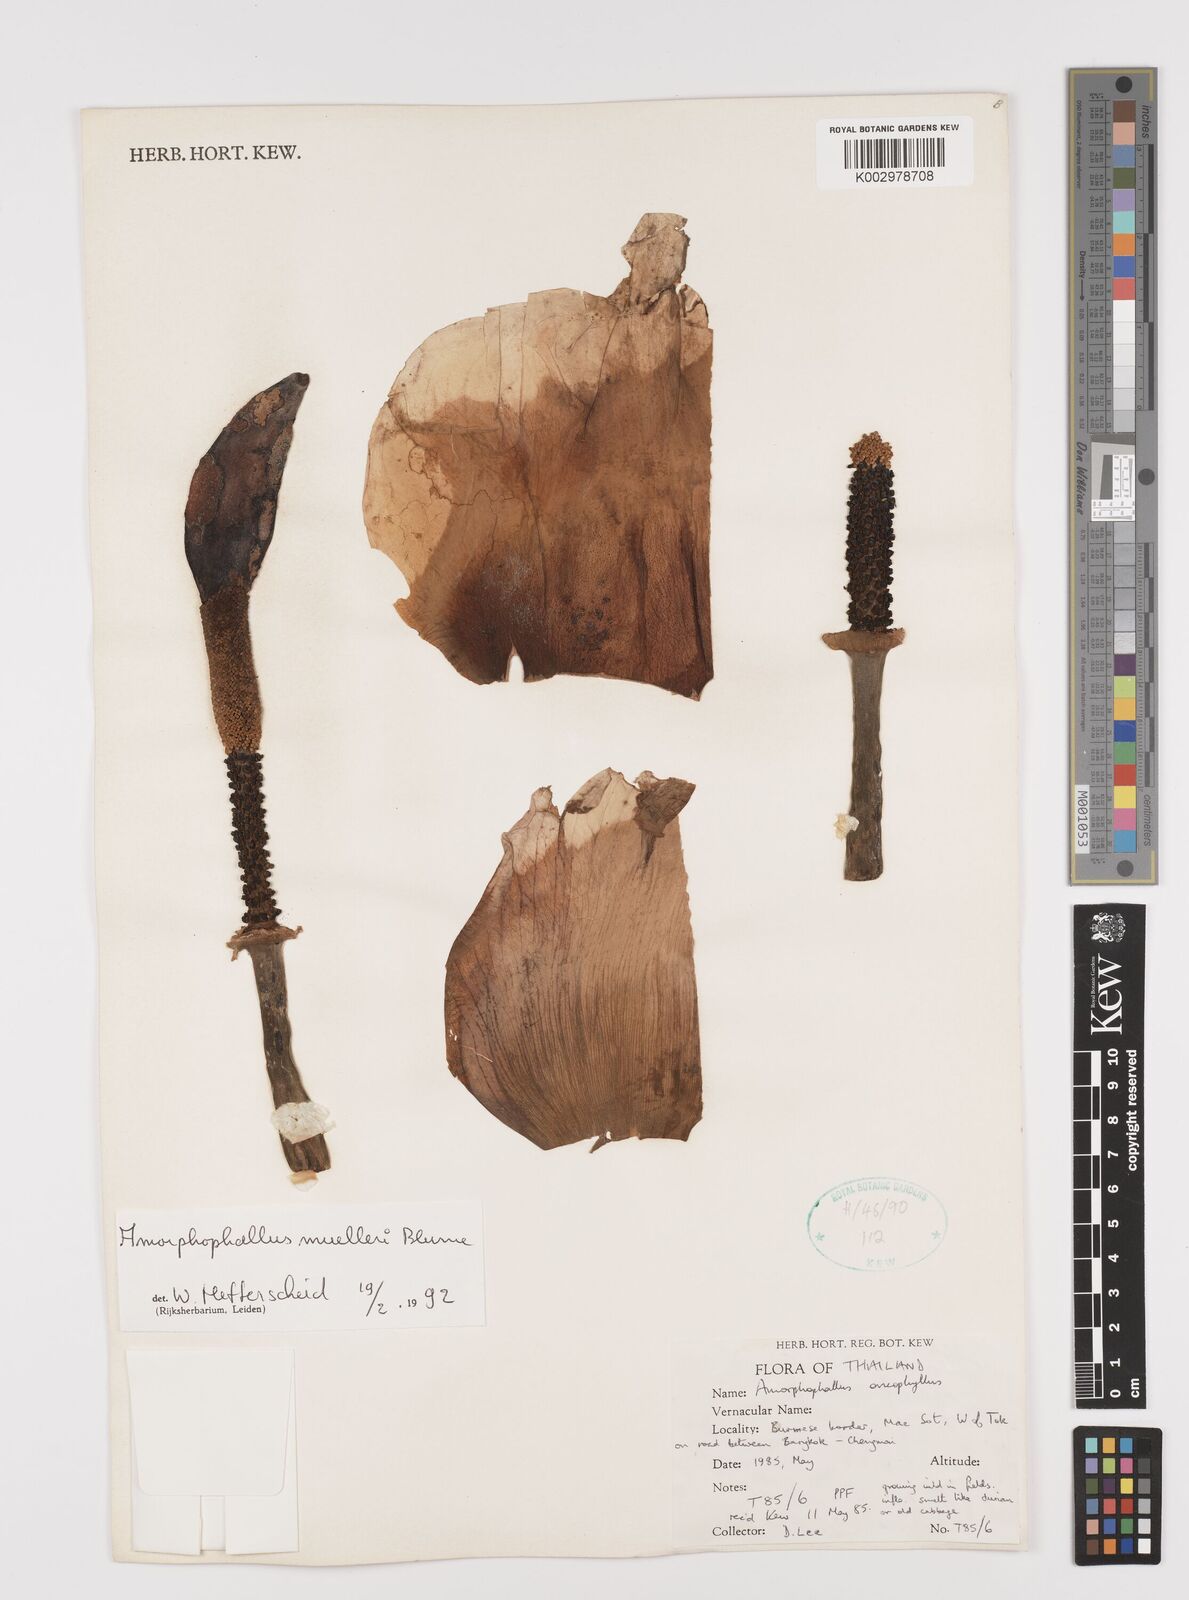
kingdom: Plantae
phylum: Tracheophyta
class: Liliopsida
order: Alismatales
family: Araceae
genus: Amorphophallus
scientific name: Amorphophallus muelleri
